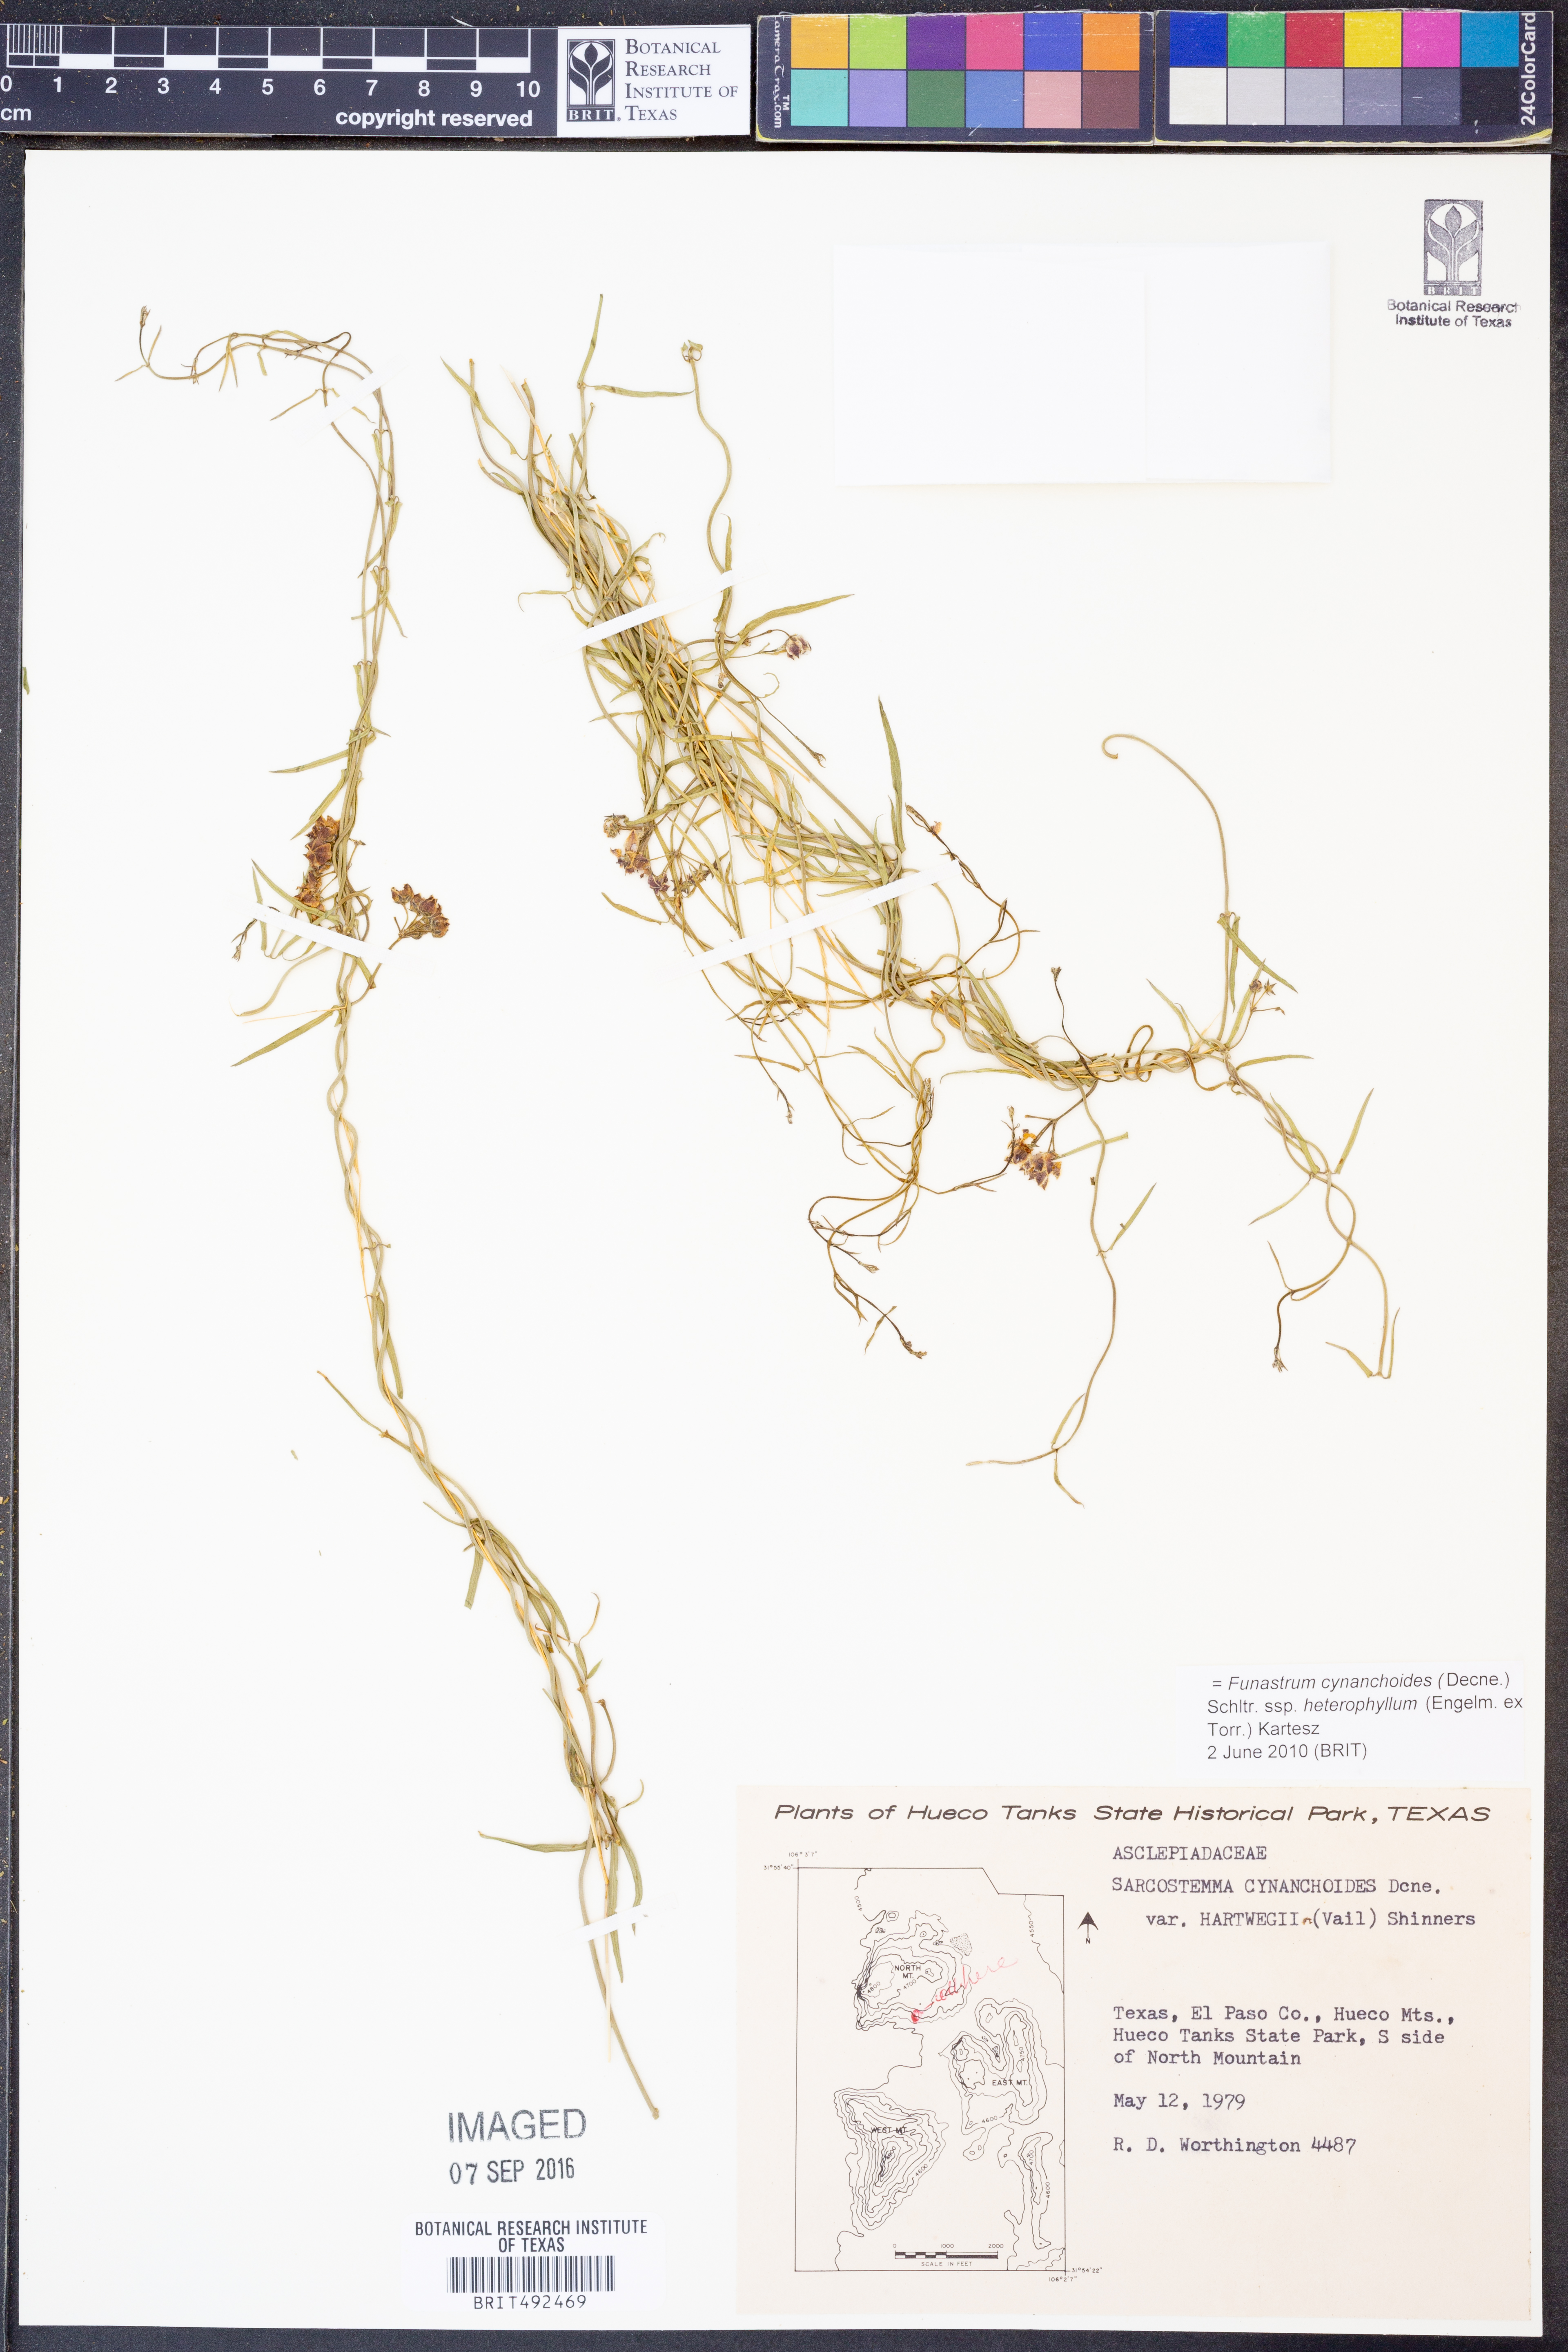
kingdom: Plantae
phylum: Tracheophyta
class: Magnoliopsida
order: Gentianales
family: Apocynaceae
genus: Funastrum
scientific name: Funastrum heterophyllum
